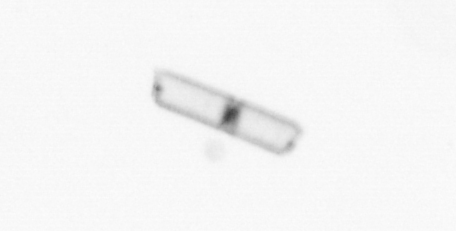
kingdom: Chromista
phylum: Ochrophyta
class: Bacillariophyceae
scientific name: Bacillariophyceae
